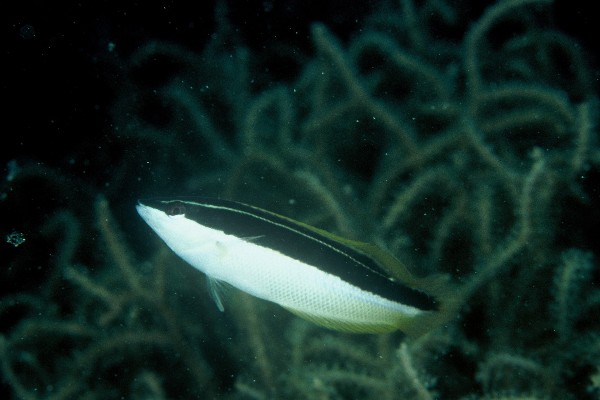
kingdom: Animalia
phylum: Chordata
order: Perciformes
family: Labridae
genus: Coris
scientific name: Coris pictoides
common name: Blackstripe coris
